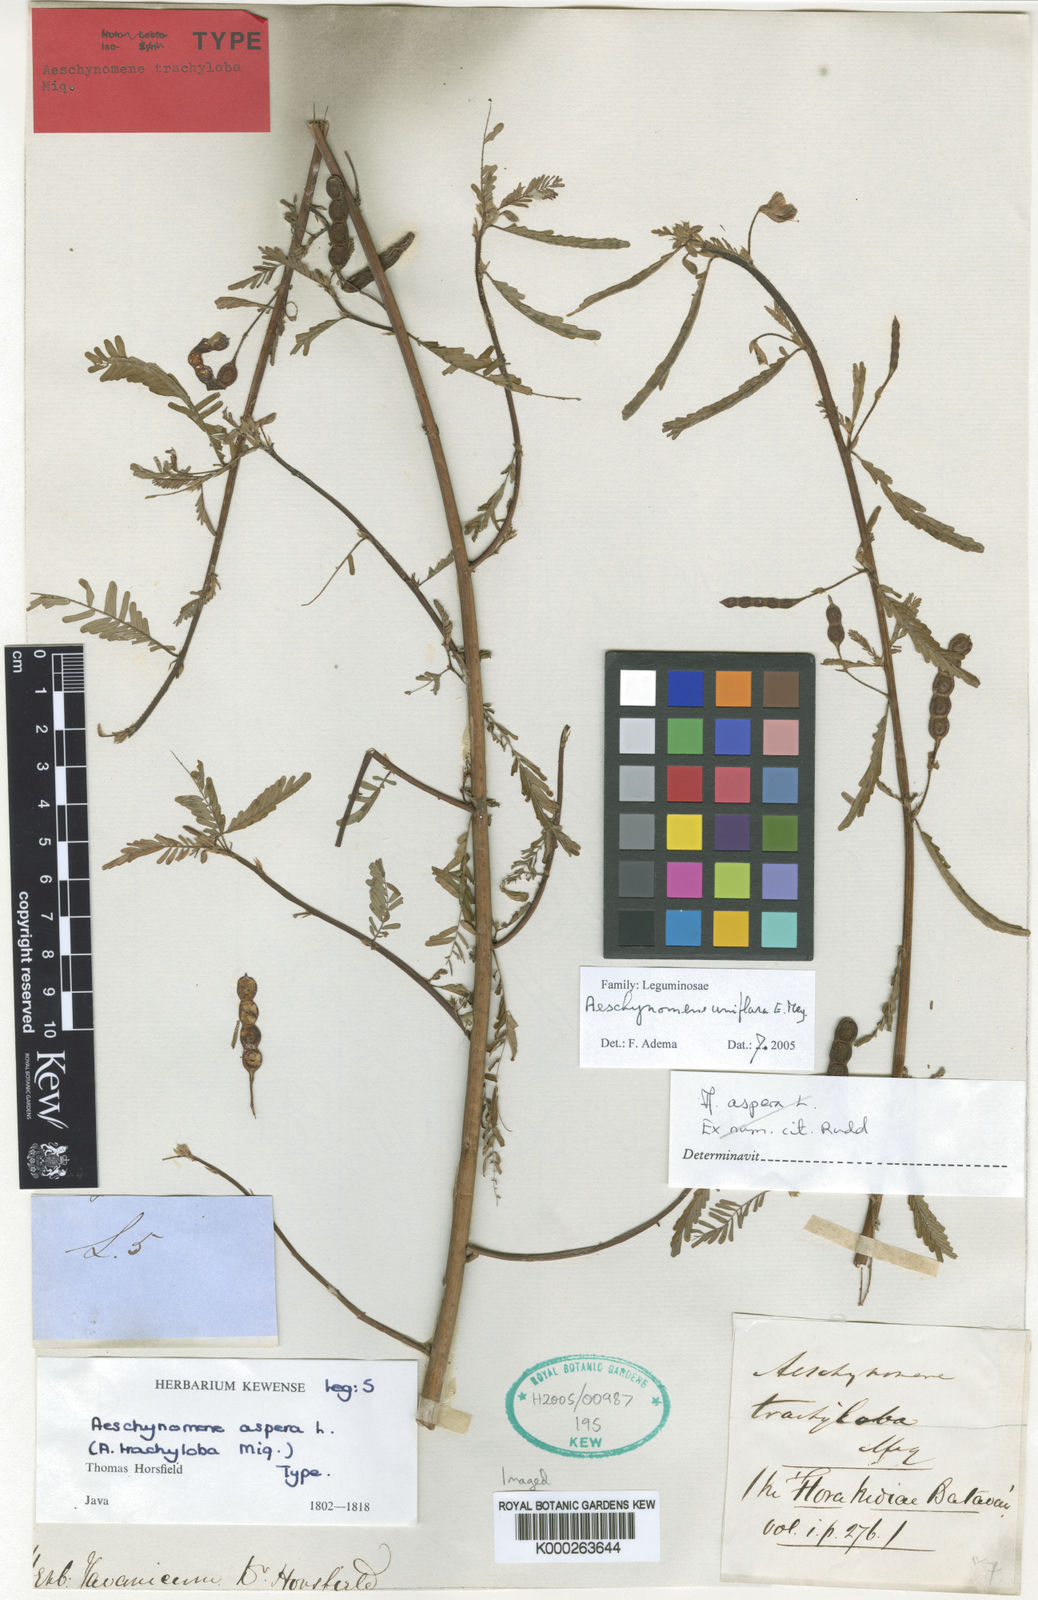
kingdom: Plantae
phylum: Tracheophyta
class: Magnoliopsida
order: Fabales
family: Fabaceae
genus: Aeschynomene
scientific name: Aeschynomene uniflora
